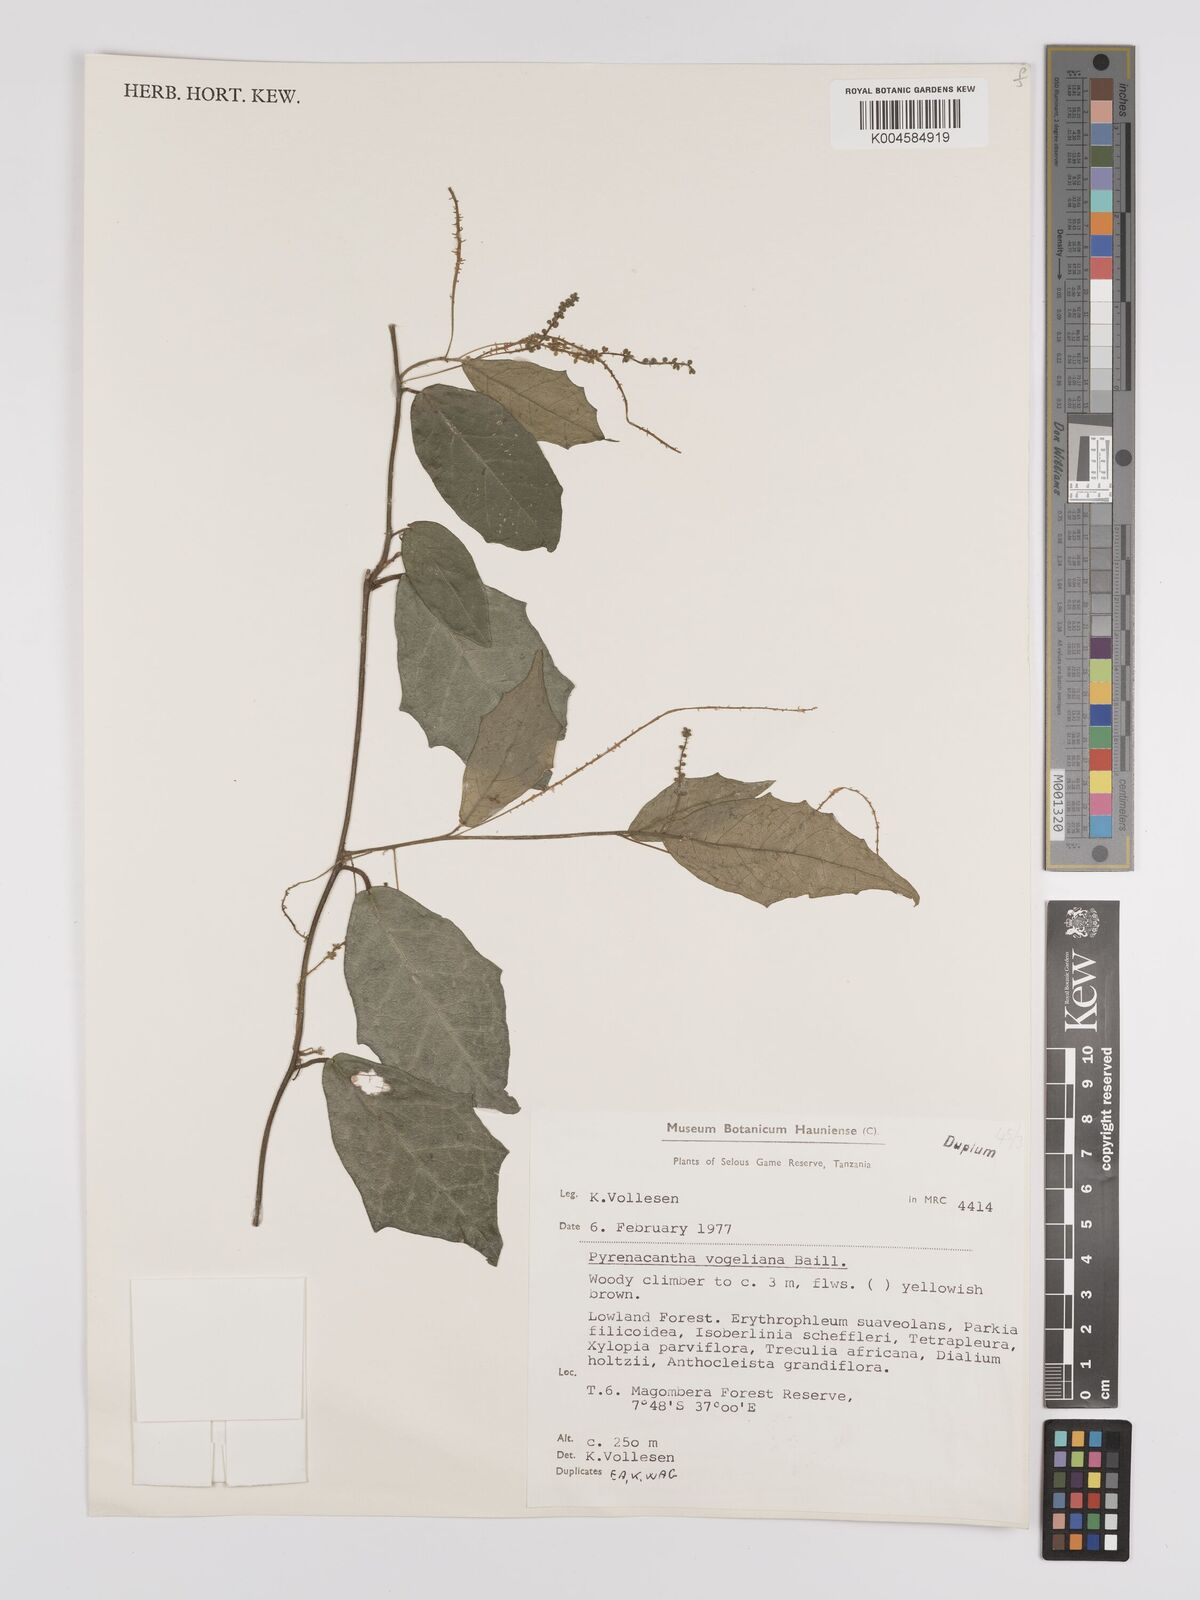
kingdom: Plantae
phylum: Tracheophyta
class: Magnoliopsida
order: Icacinales
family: Icacinaceae
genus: Pyrenacantha
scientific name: Pyrenacantha vogeliana
